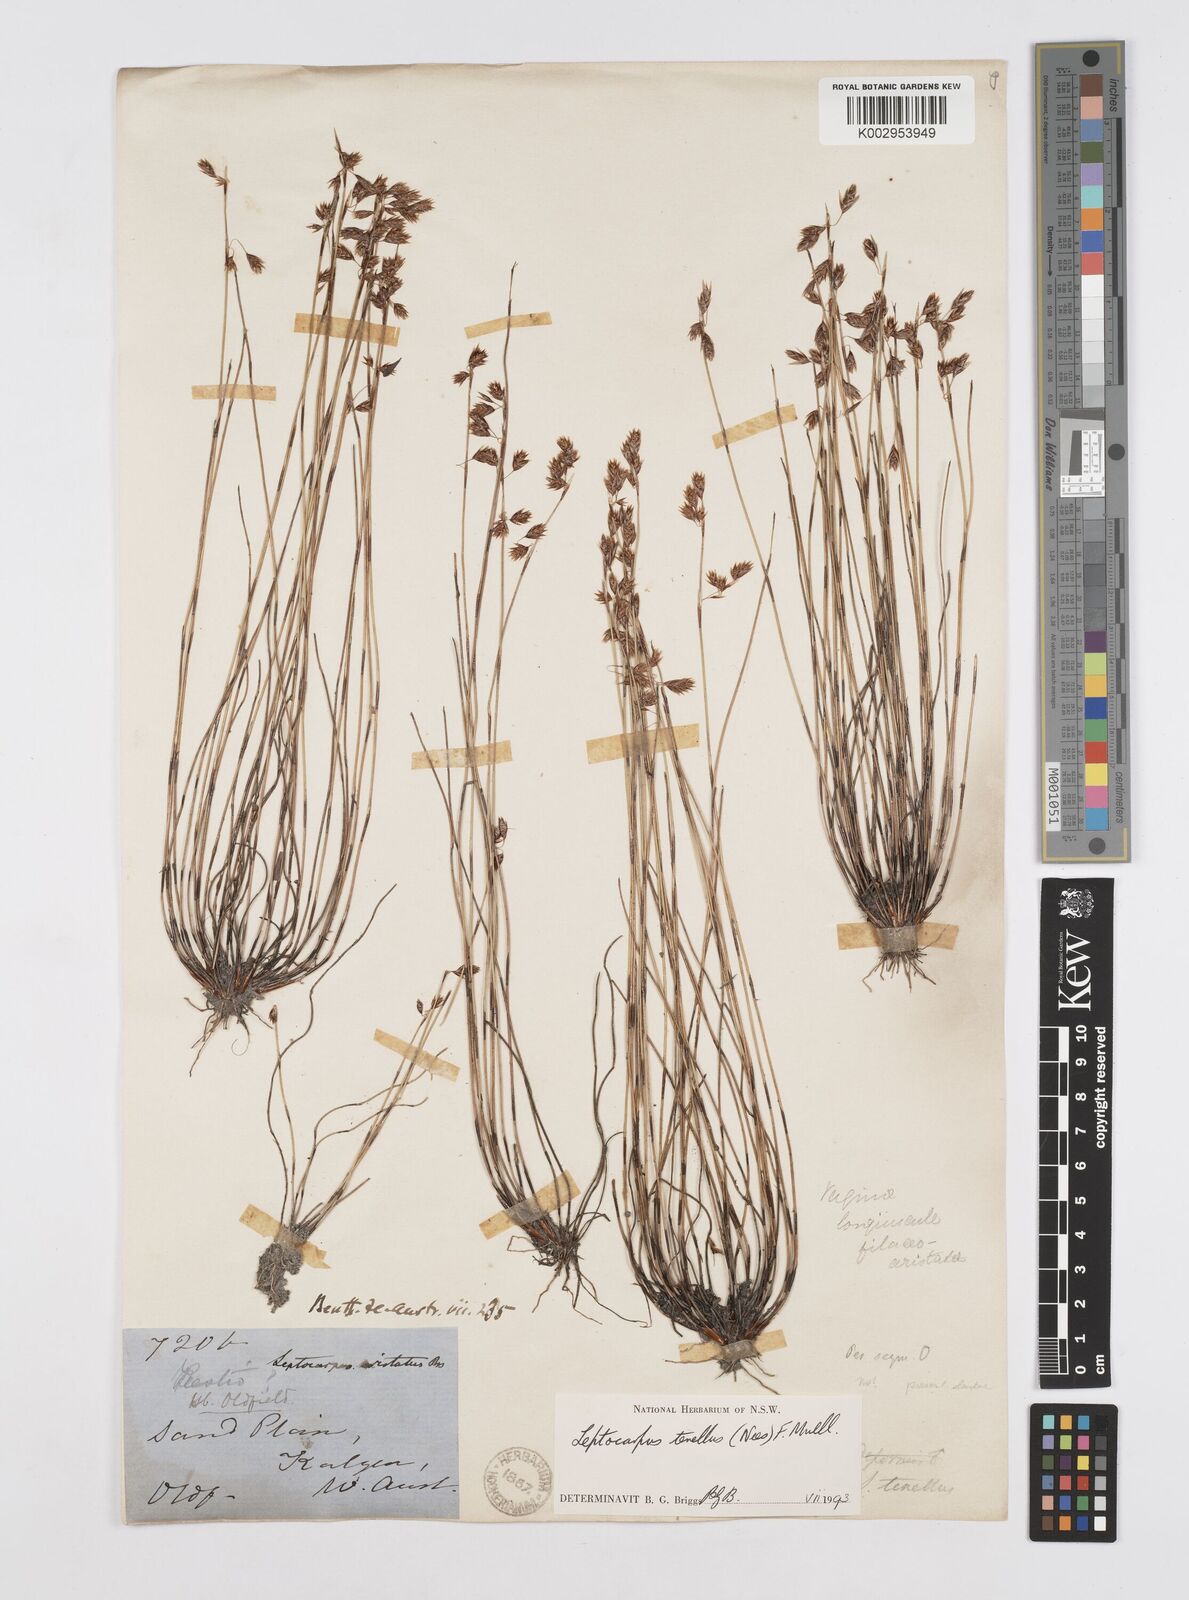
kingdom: Plantae
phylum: Tracheophyta
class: Liliopsida
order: Poales
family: Restionaceae
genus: Chaetanthus
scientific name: Chaetanthus tenellus
